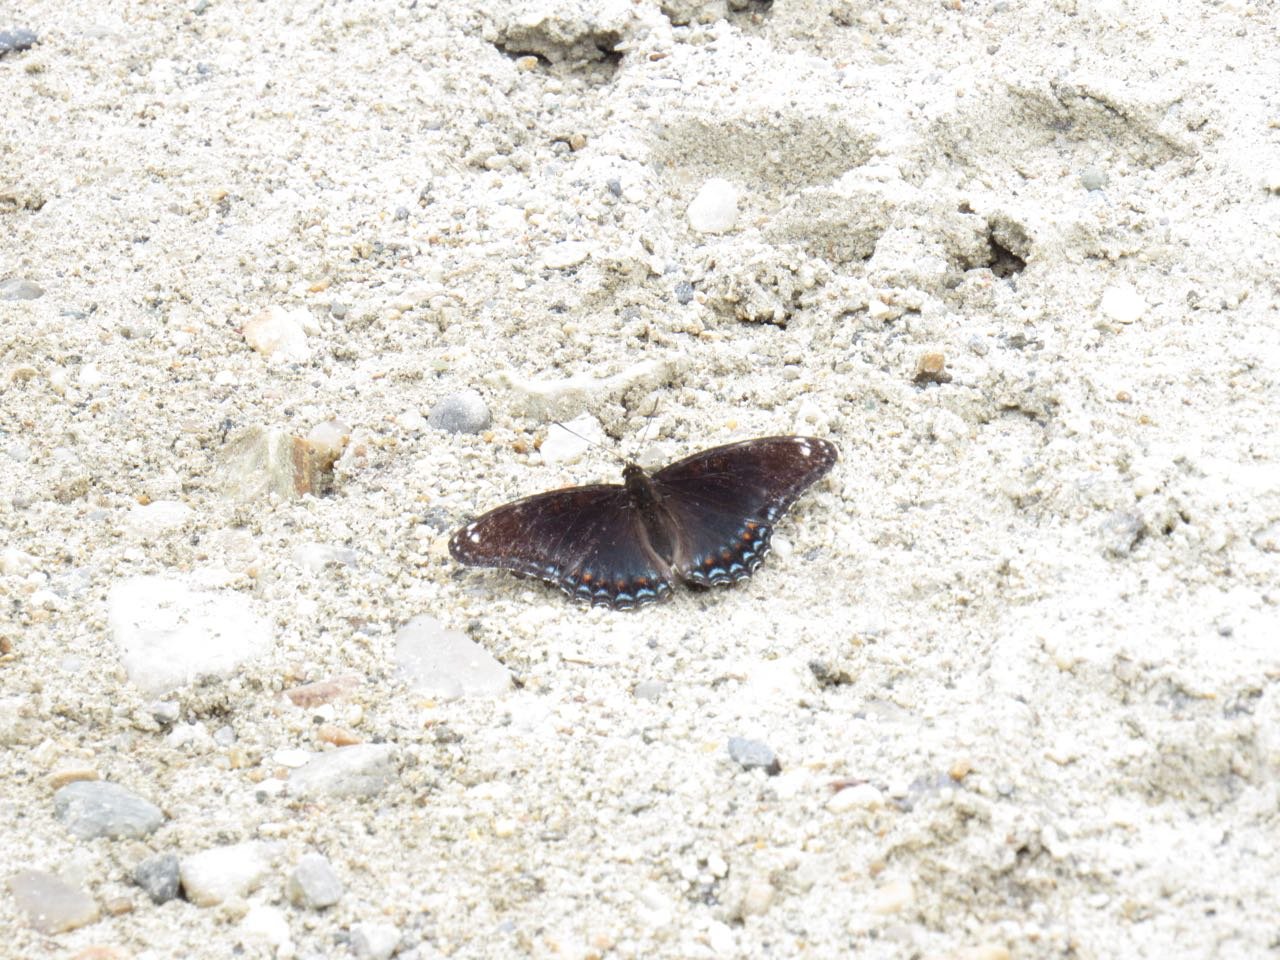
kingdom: Animalia
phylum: Arthropoda
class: Insecta
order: Lepidoptera
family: Nymphalidae
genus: Limenitis
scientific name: Limenitis
